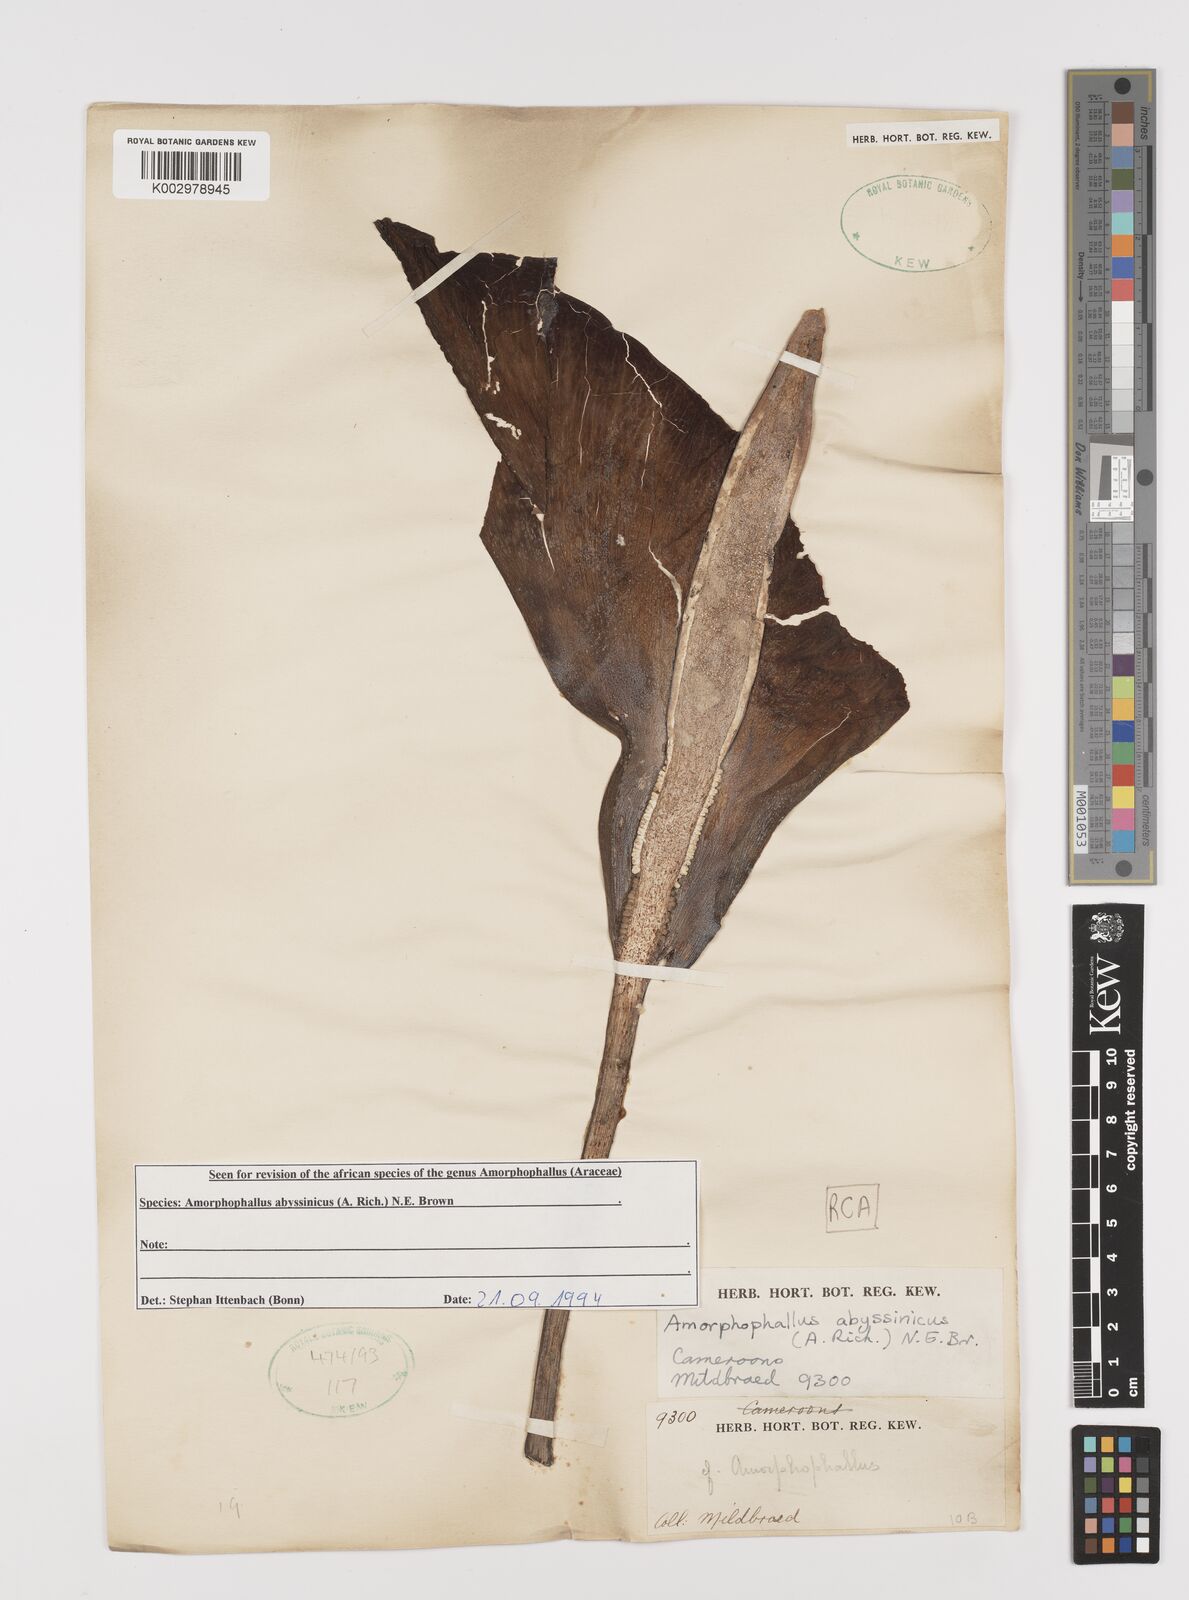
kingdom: Plantae
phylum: Tracheophyta
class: Liliopsida
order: Alismatales
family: Araceae
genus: Amorphophallus
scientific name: Amorphophallus abyssinicus
